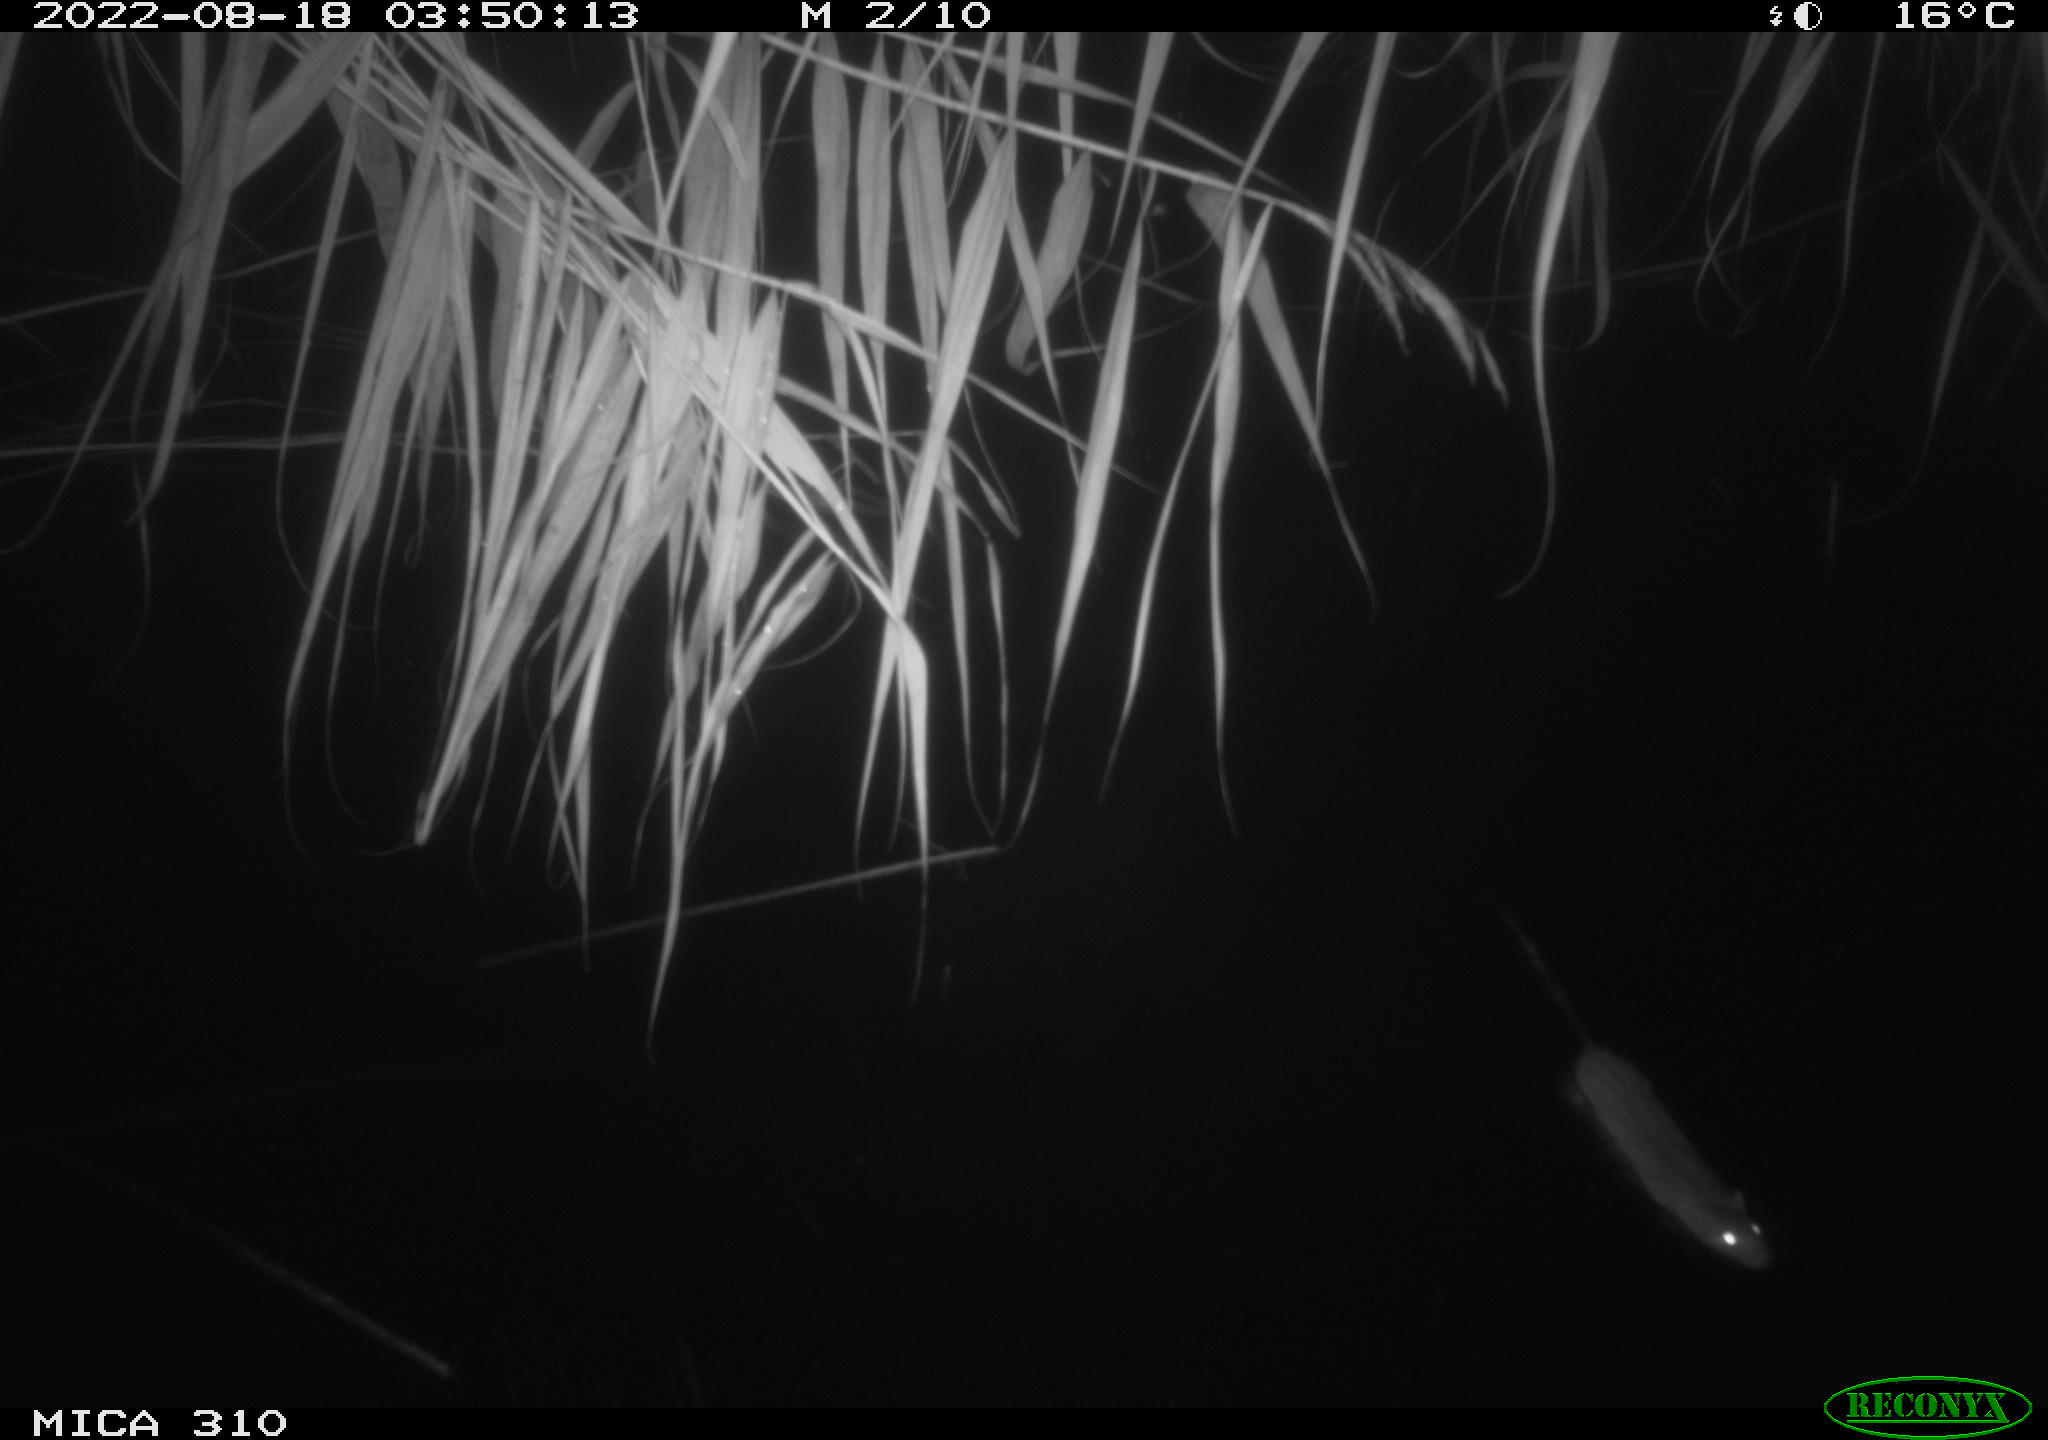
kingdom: Animalia
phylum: Chordata
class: Mammalia
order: Rodentia
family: Muridae
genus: Rattus
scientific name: Rattus norvegicus
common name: Brown rat
